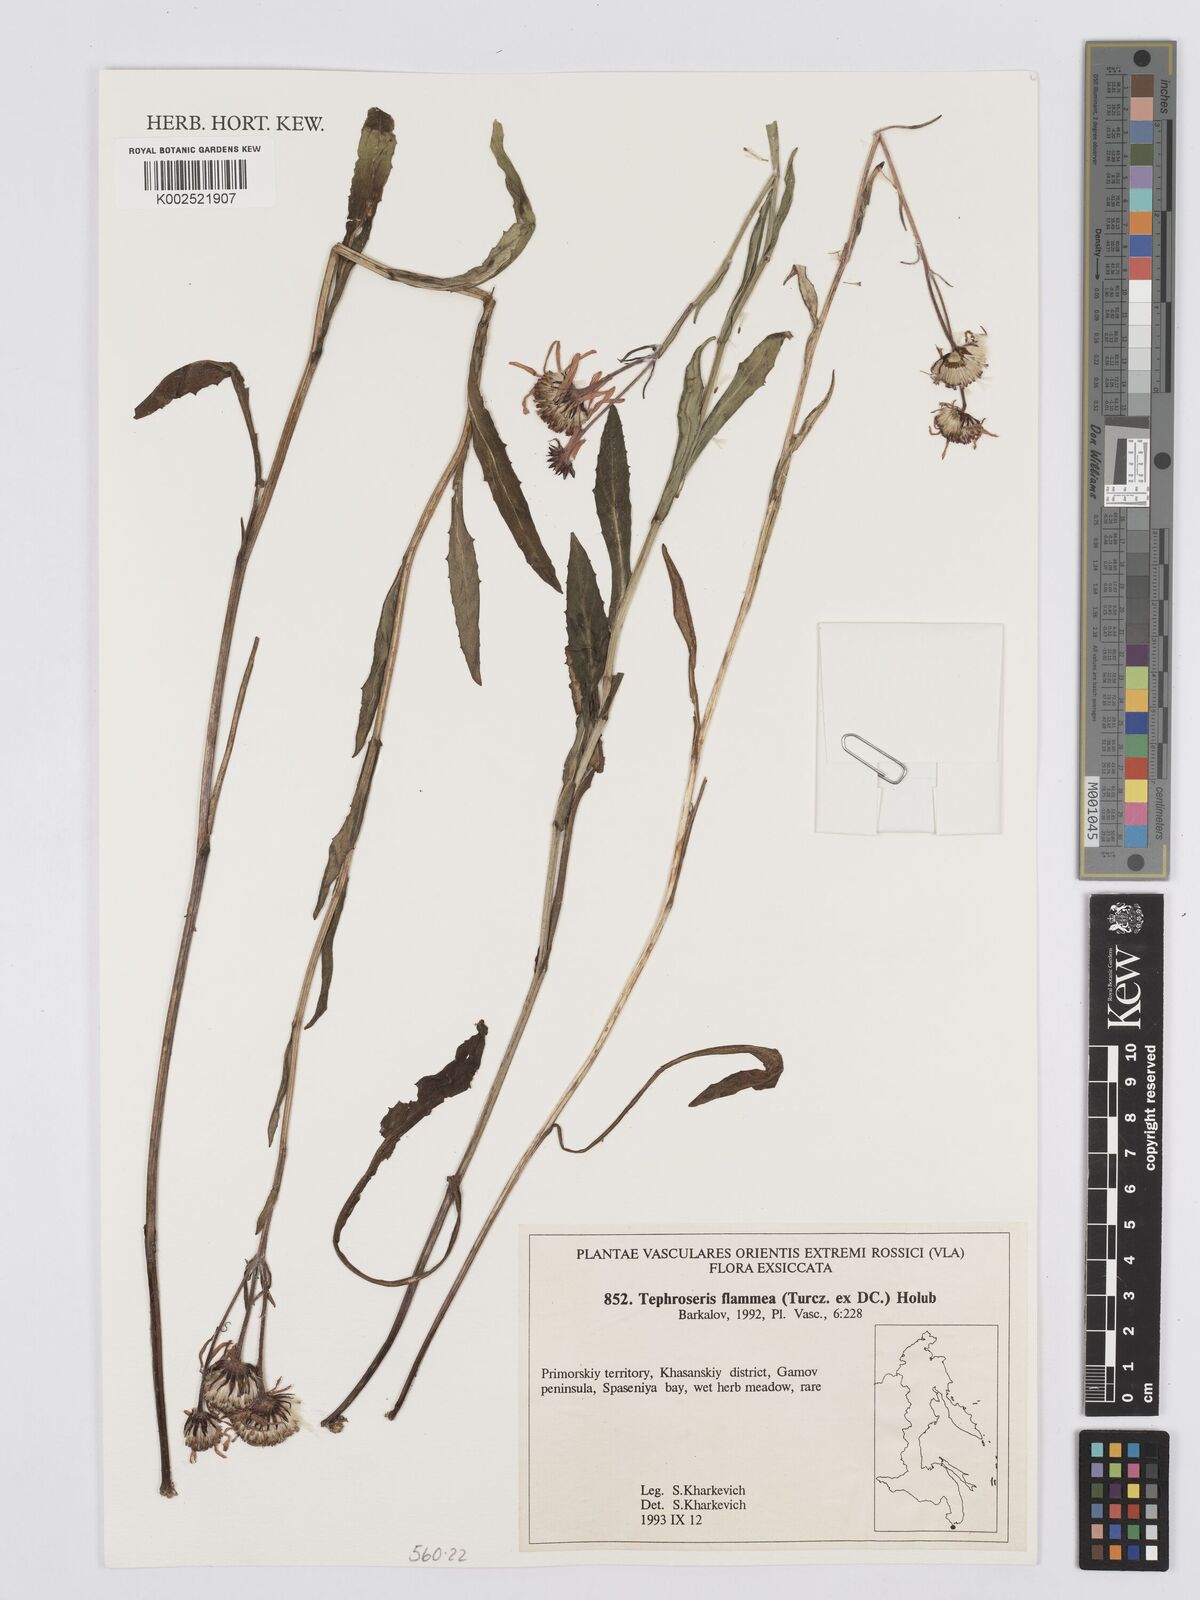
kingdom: Plantae
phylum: Tracheophyta
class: Magnoliopsida
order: Asterales
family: Asteraceae
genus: Tephroseris
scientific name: Tephroseris flammea
